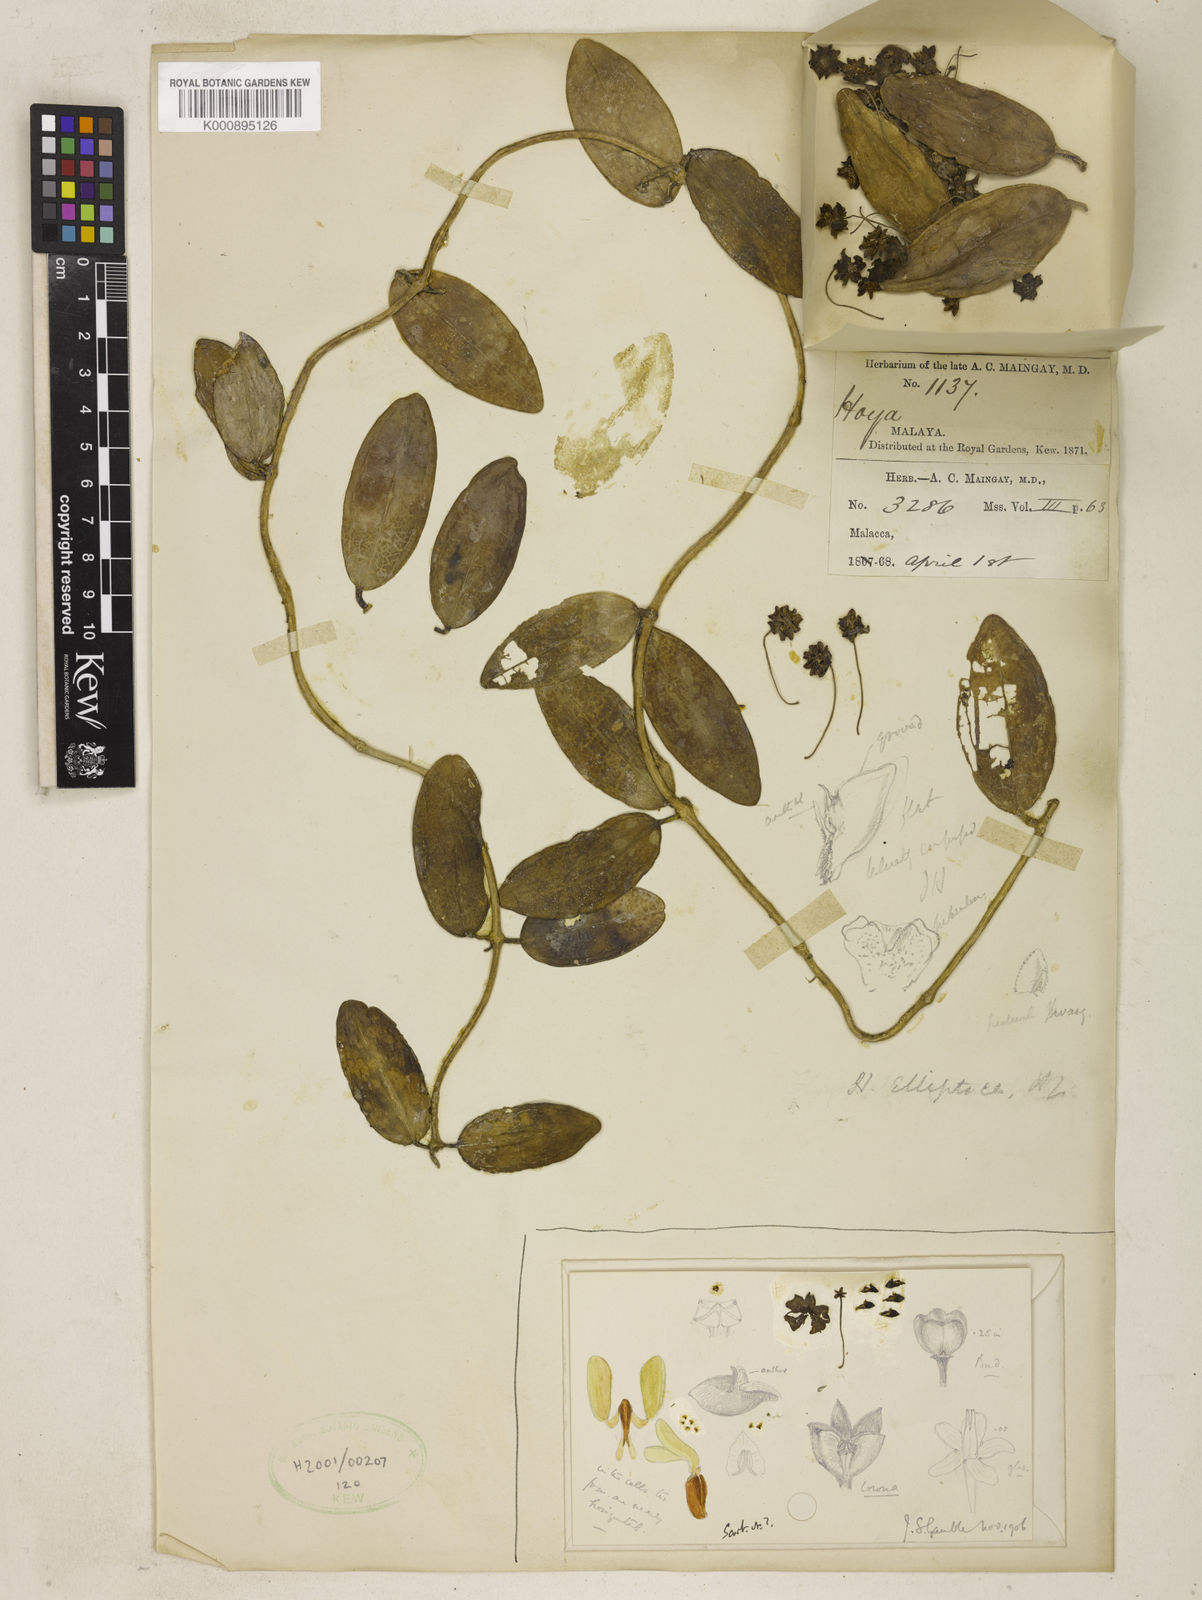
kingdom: Plantae
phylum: Tracheophyta
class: Magnoliopsida
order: Gentianales
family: Apocynaceae
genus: Hoya
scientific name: Hoya elliptica
